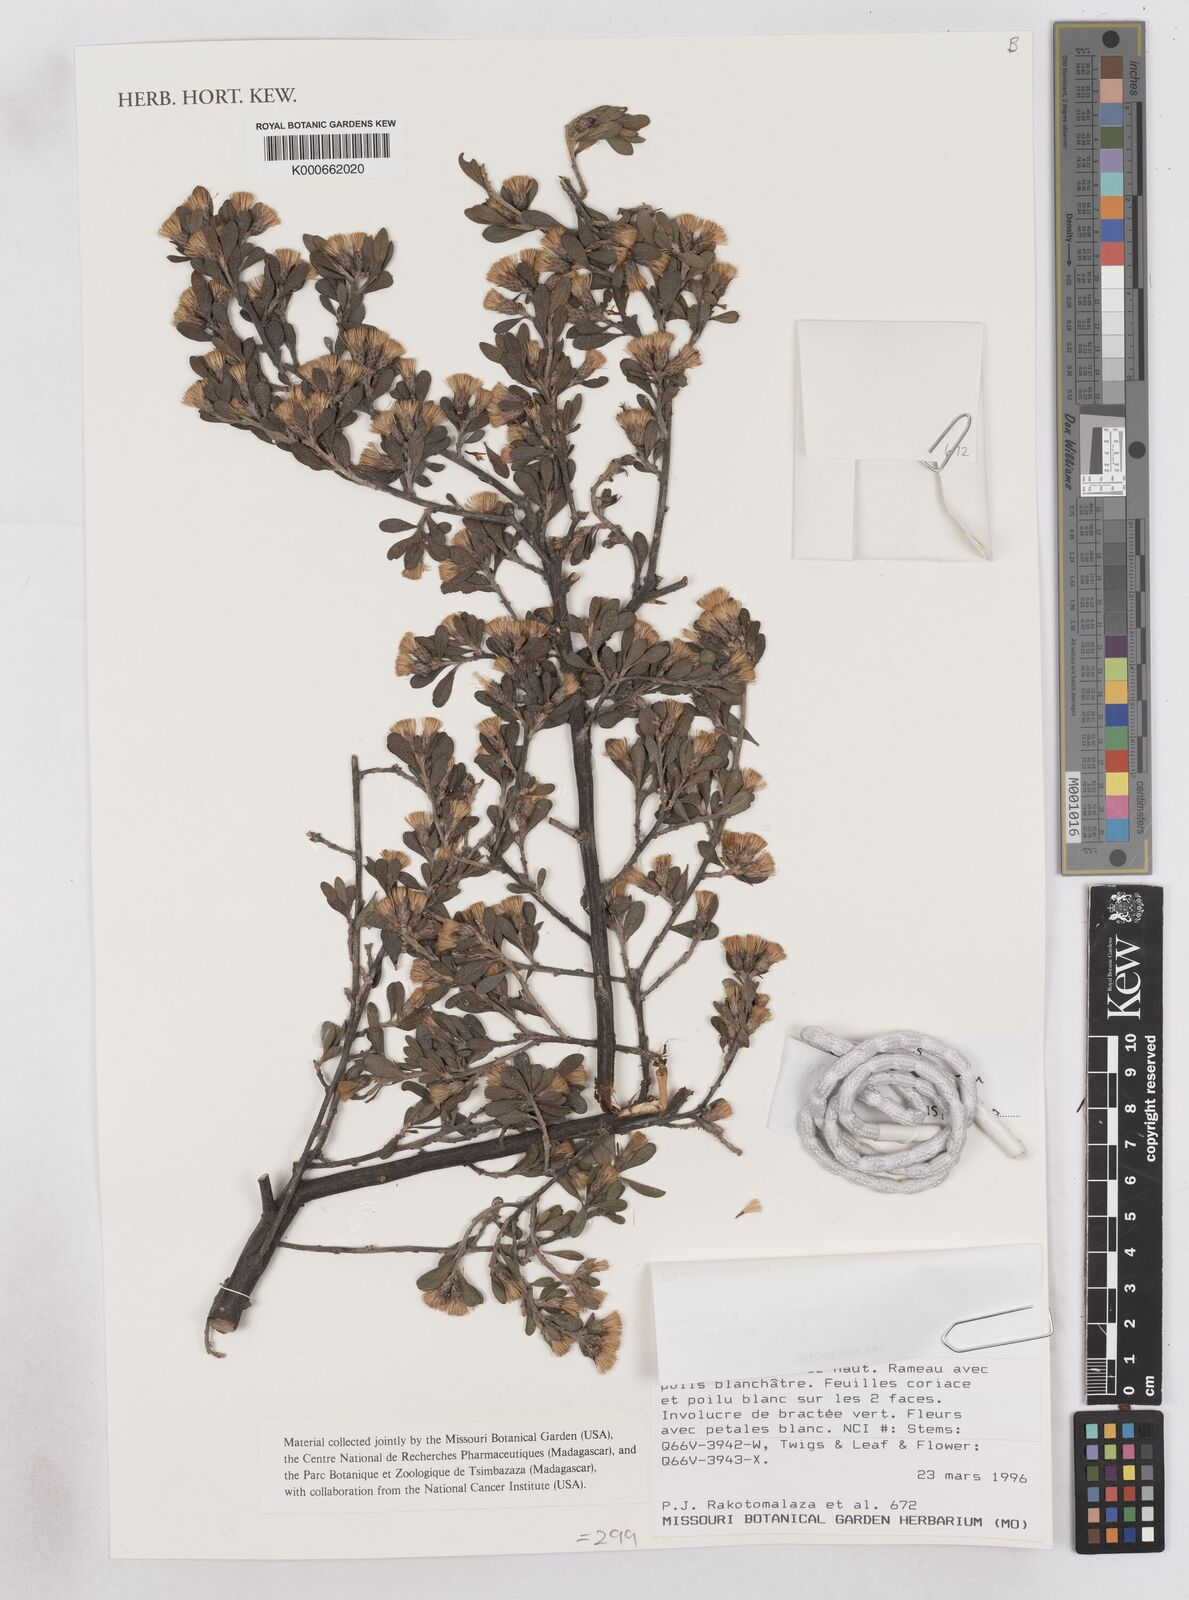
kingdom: Plantae
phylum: Tracheophyta
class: Magnoliopsida
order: Asterales
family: Asteraceae
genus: Distephanus
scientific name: Distephanus polygalifolius
